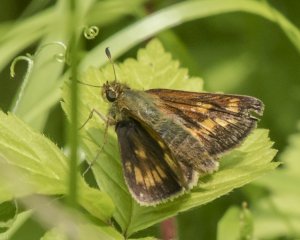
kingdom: Animalia
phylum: Arthropoda
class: Insecta
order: Lepidoptera
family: Hesperiidae
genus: Polites
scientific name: Polites coras
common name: Peck's Skipper
